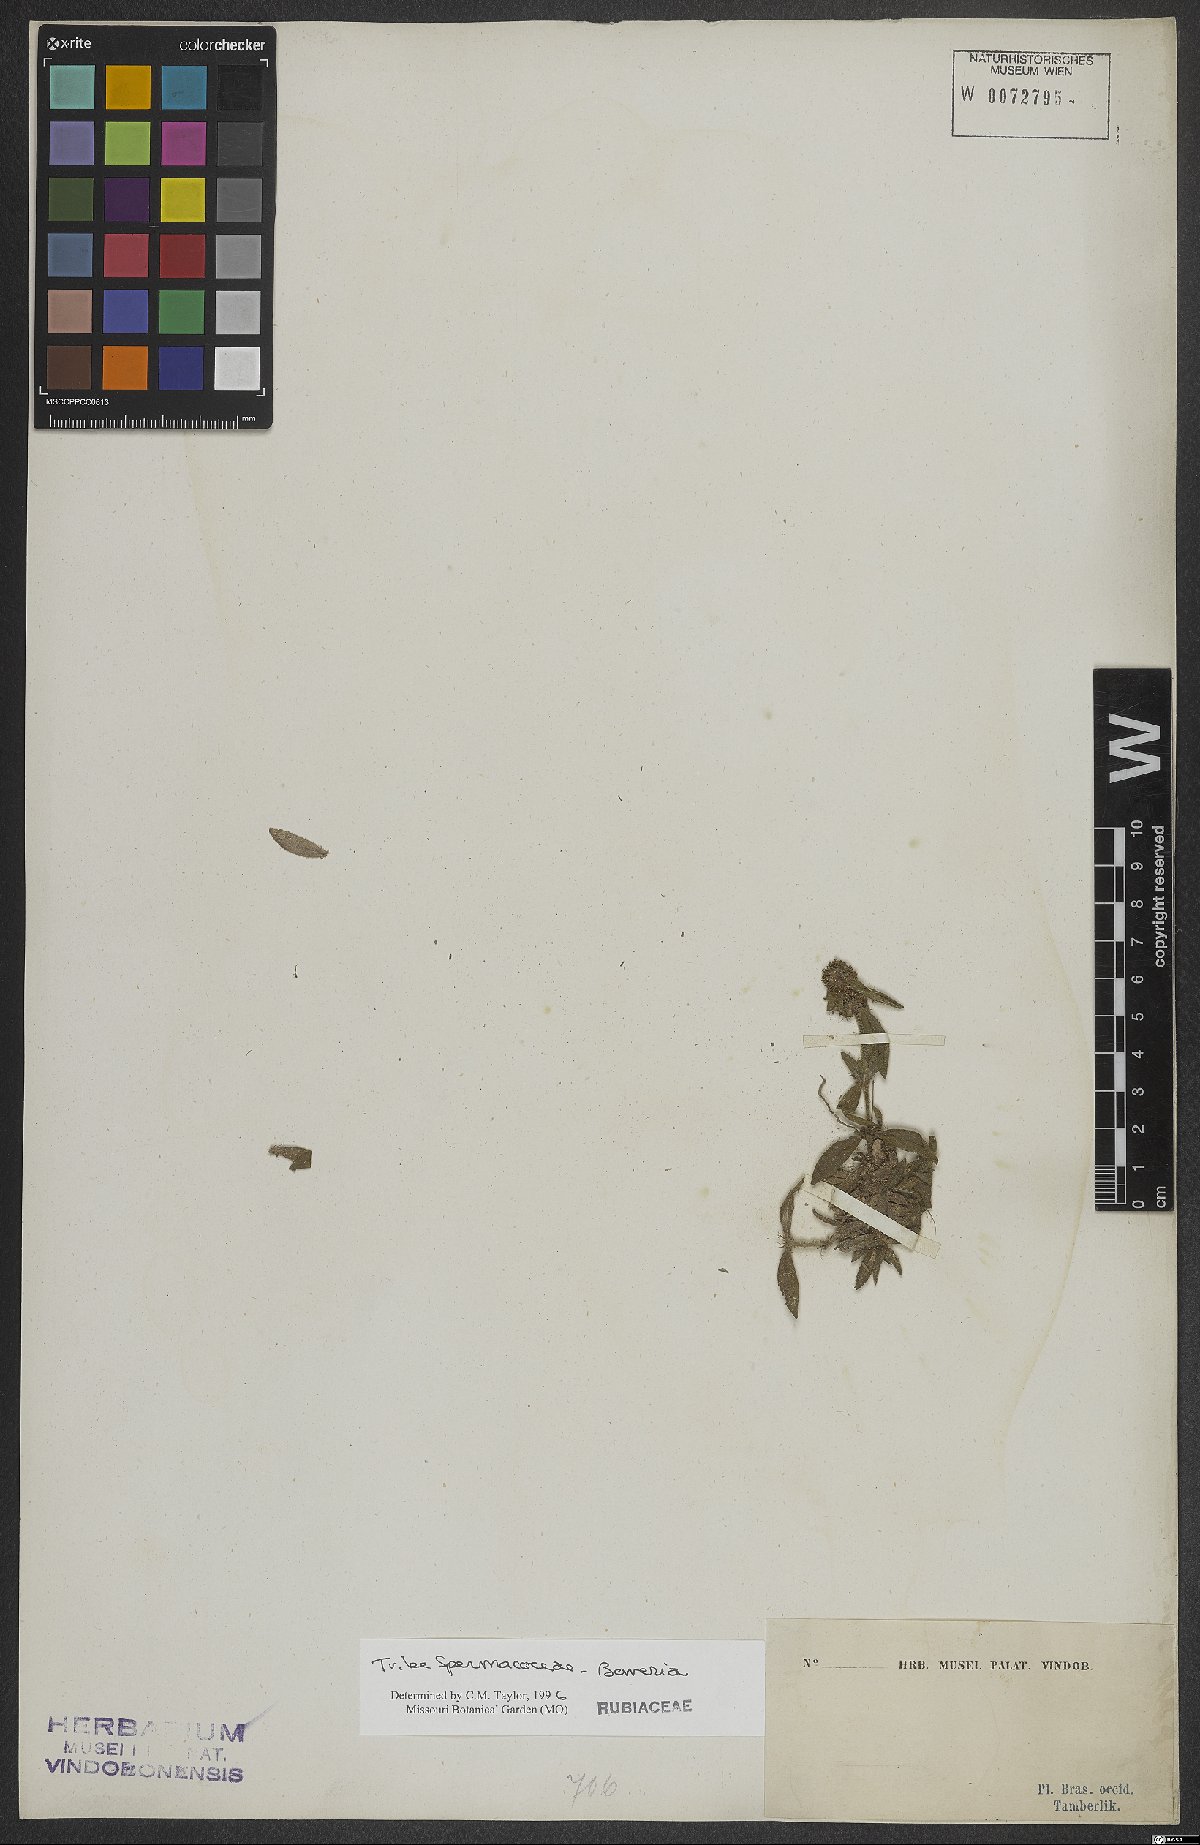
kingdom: Plantae
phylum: Tracheophyta
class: Magnoliopsida
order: Gentianales
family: Rubiaceae
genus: Spermacoce
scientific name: Spermacoce
